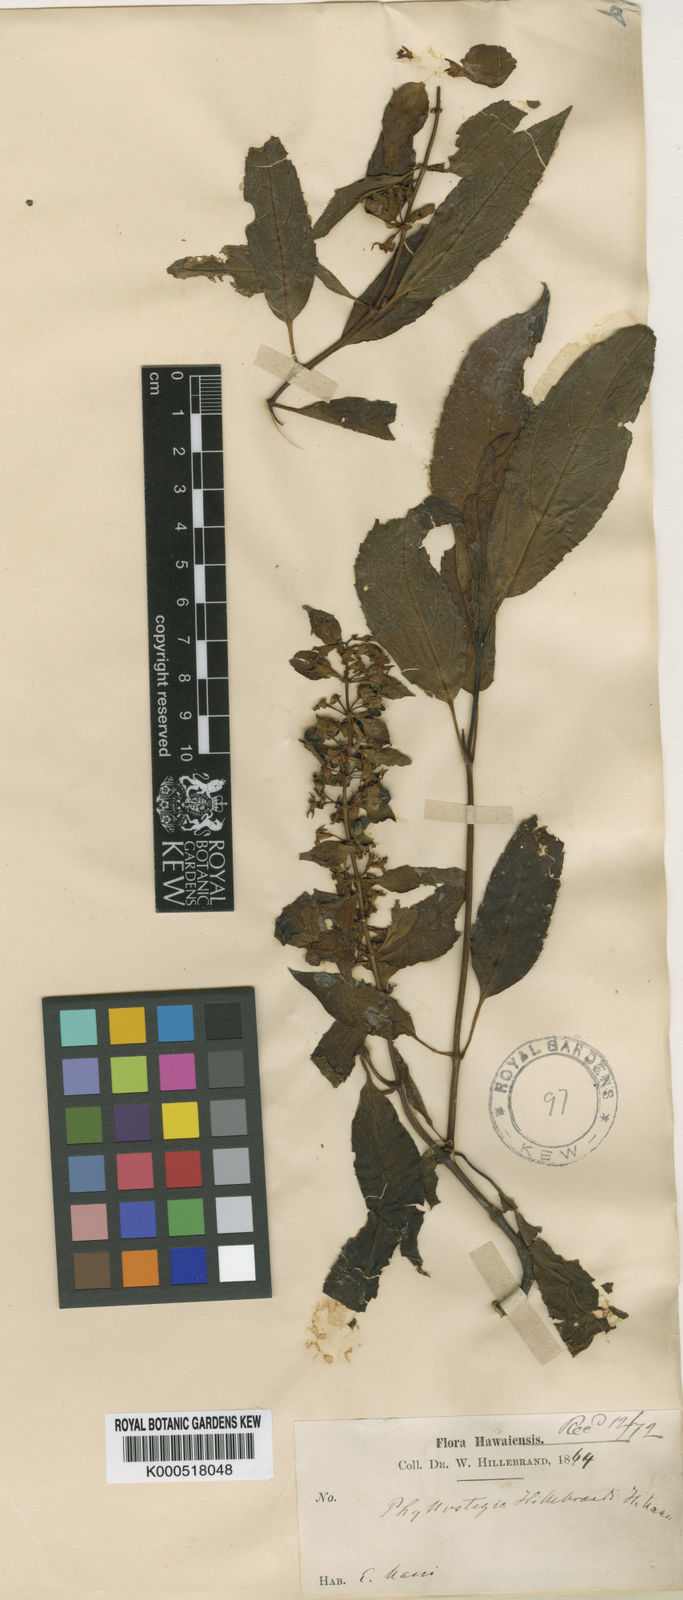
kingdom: Plantae
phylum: Tracheophyta
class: Magnoliopsida
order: Lamiales
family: Lamiaceae
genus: Phyllostegia
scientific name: Phyllostegia hillebrandii
